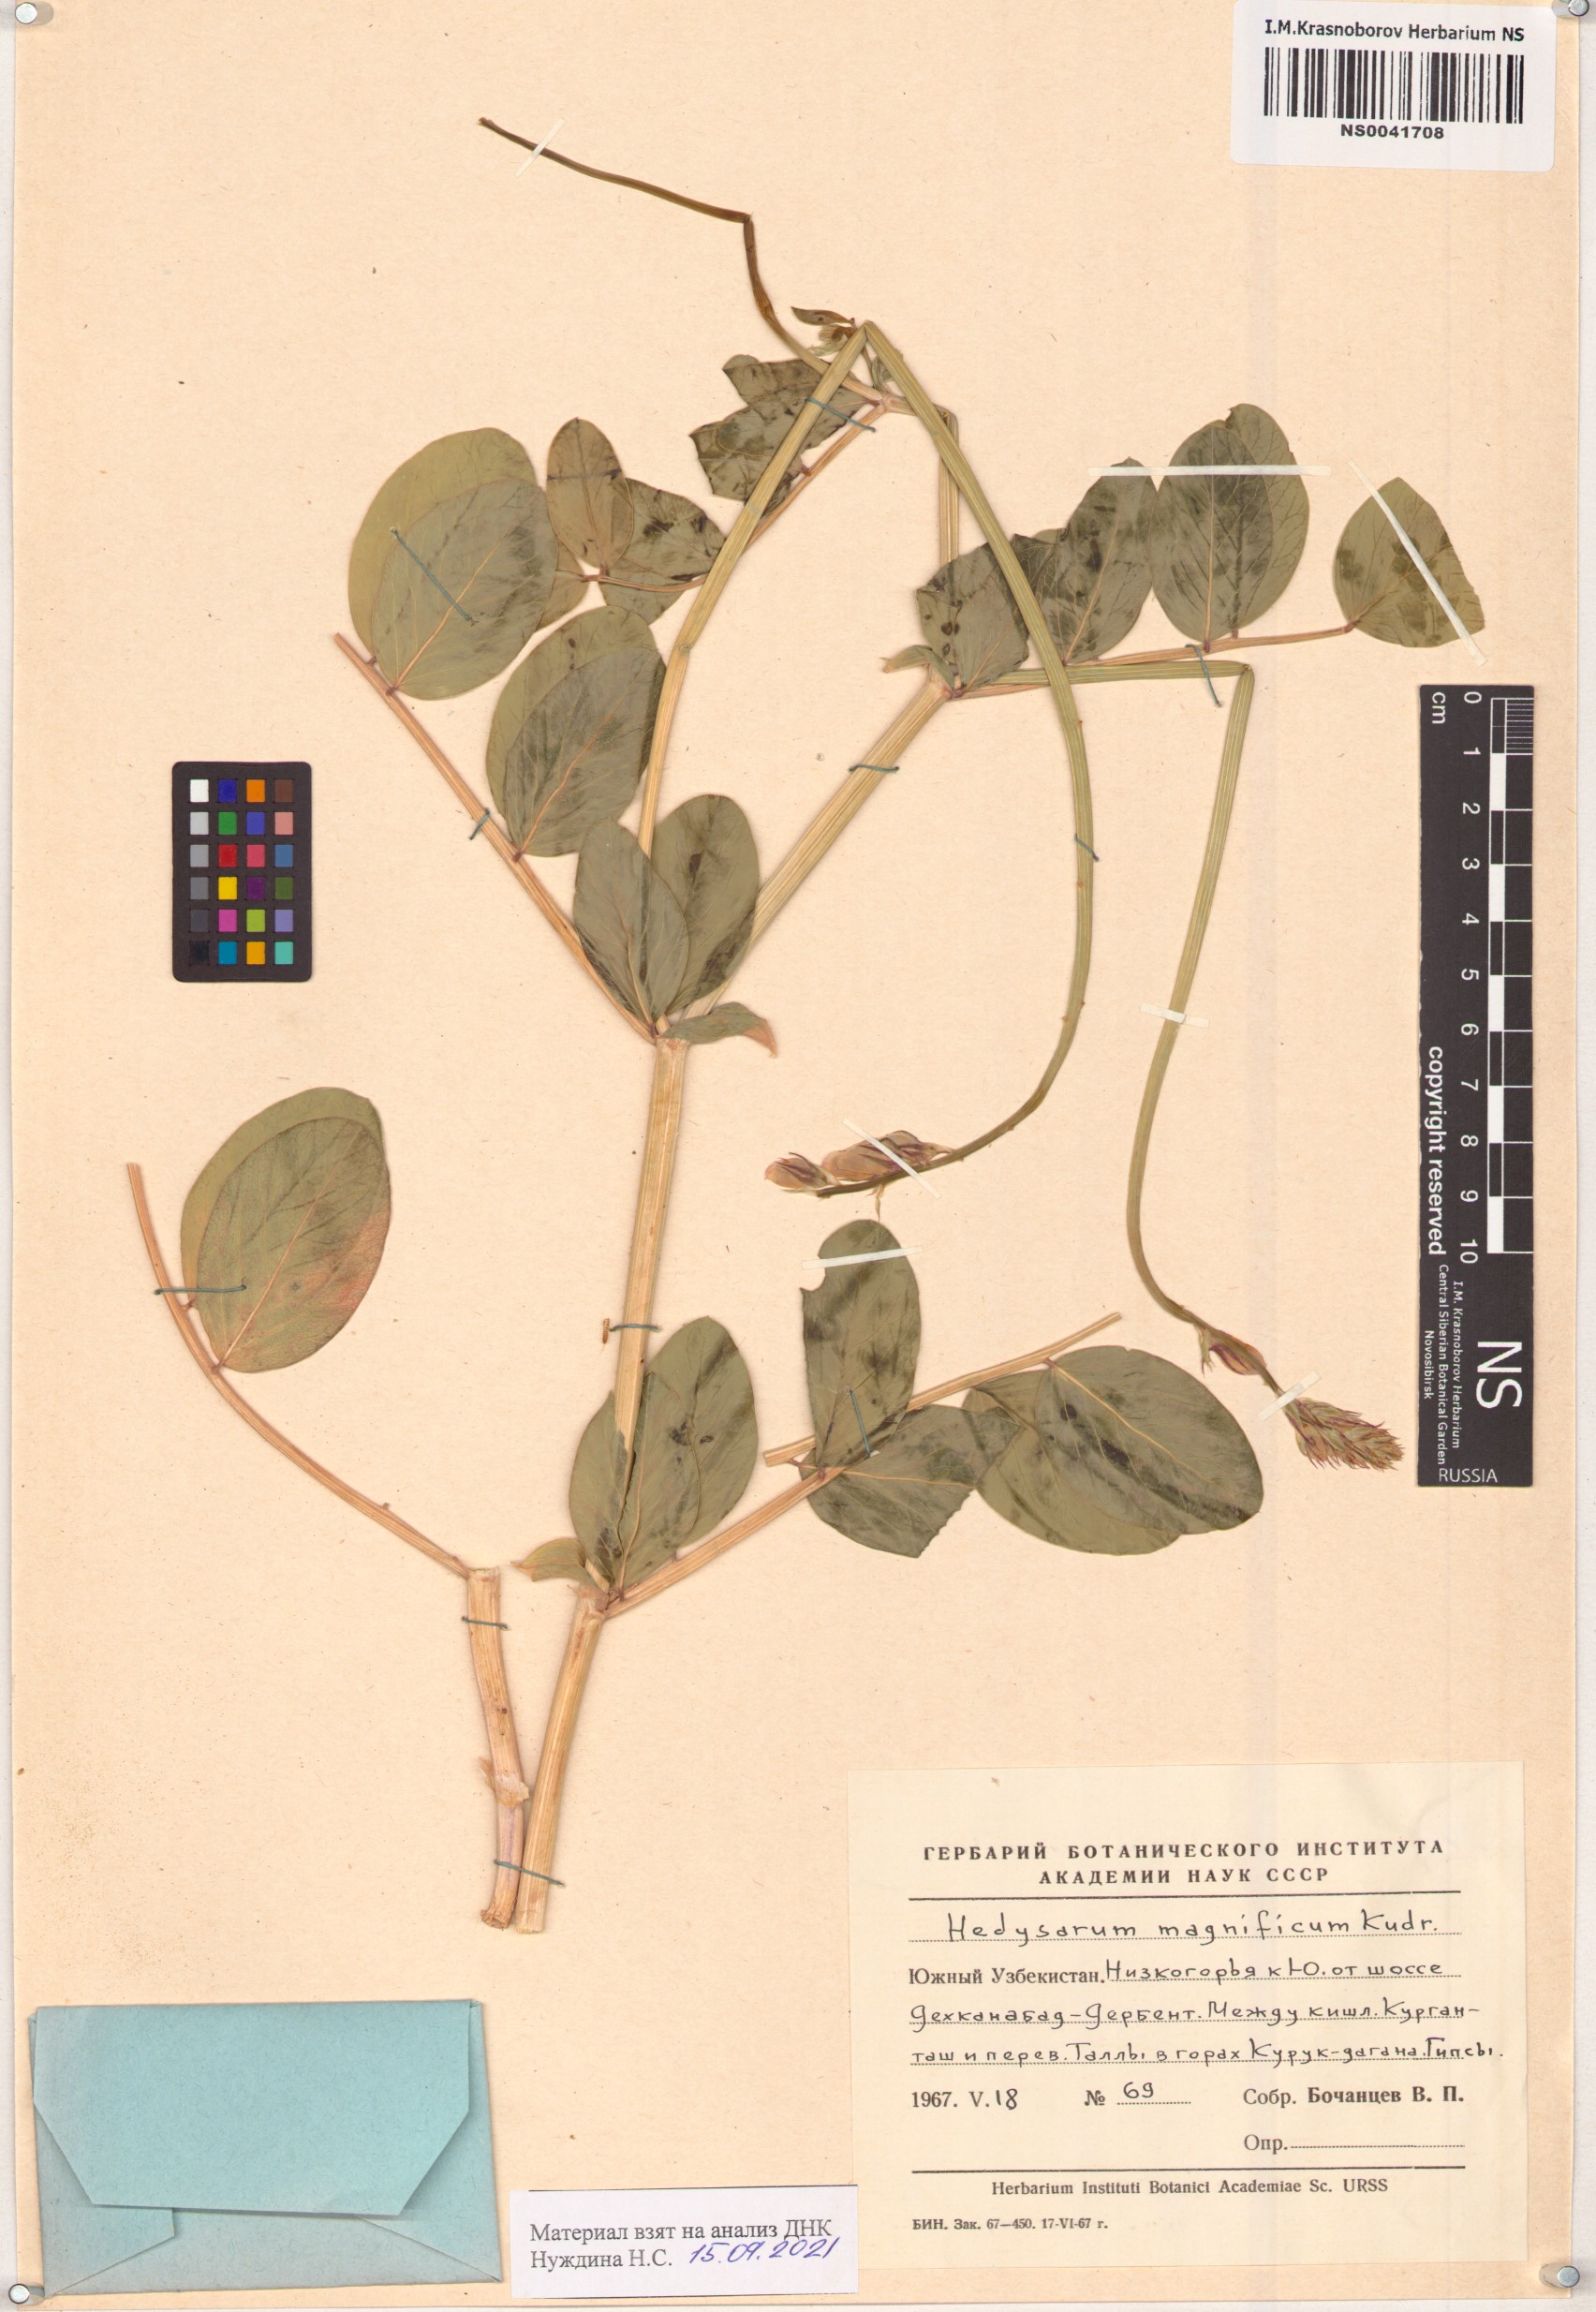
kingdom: Plantae
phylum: Tracheophyta
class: Magnoliopsida
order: Fabales
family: Fabaceae
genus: Hedysarum
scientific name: Hedysarum magnificum
